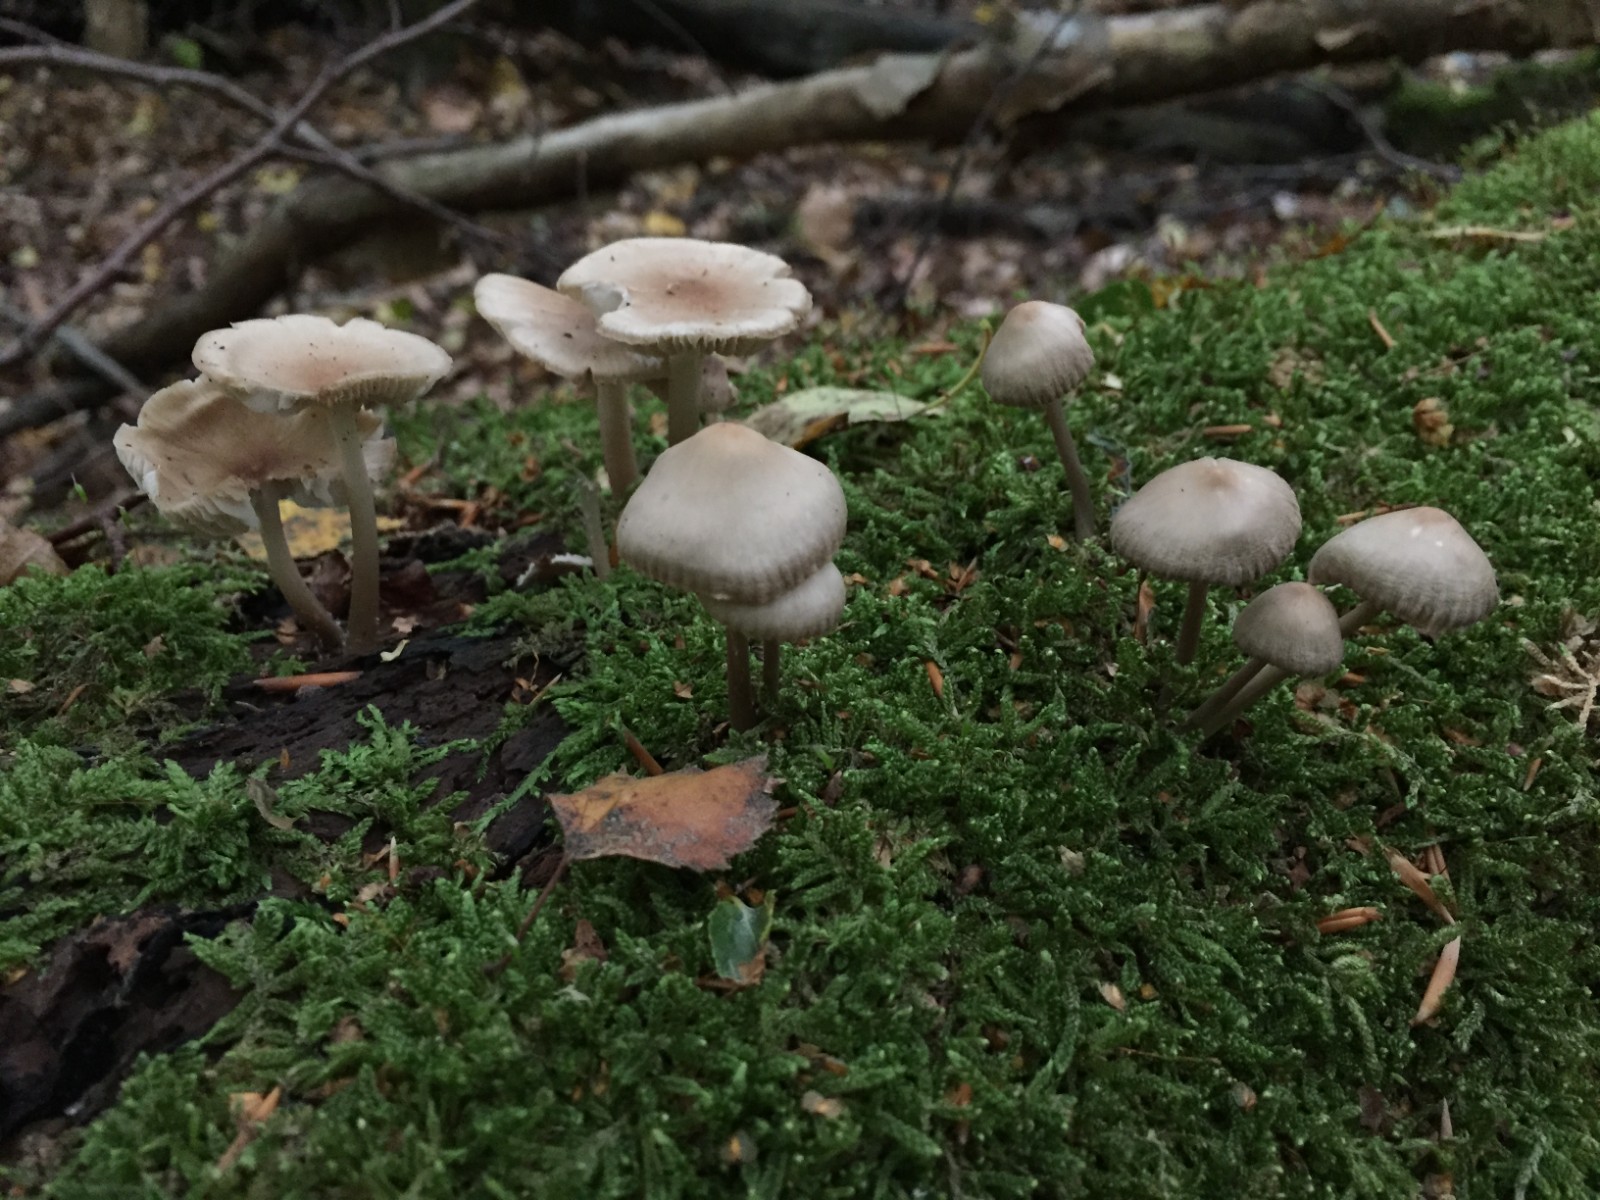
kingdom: Fungi
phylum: Basidiomycota
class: Agaricomycetes
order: Agaricales
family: Mycenaceae
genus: Mycena
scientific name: Mycena galericulata
